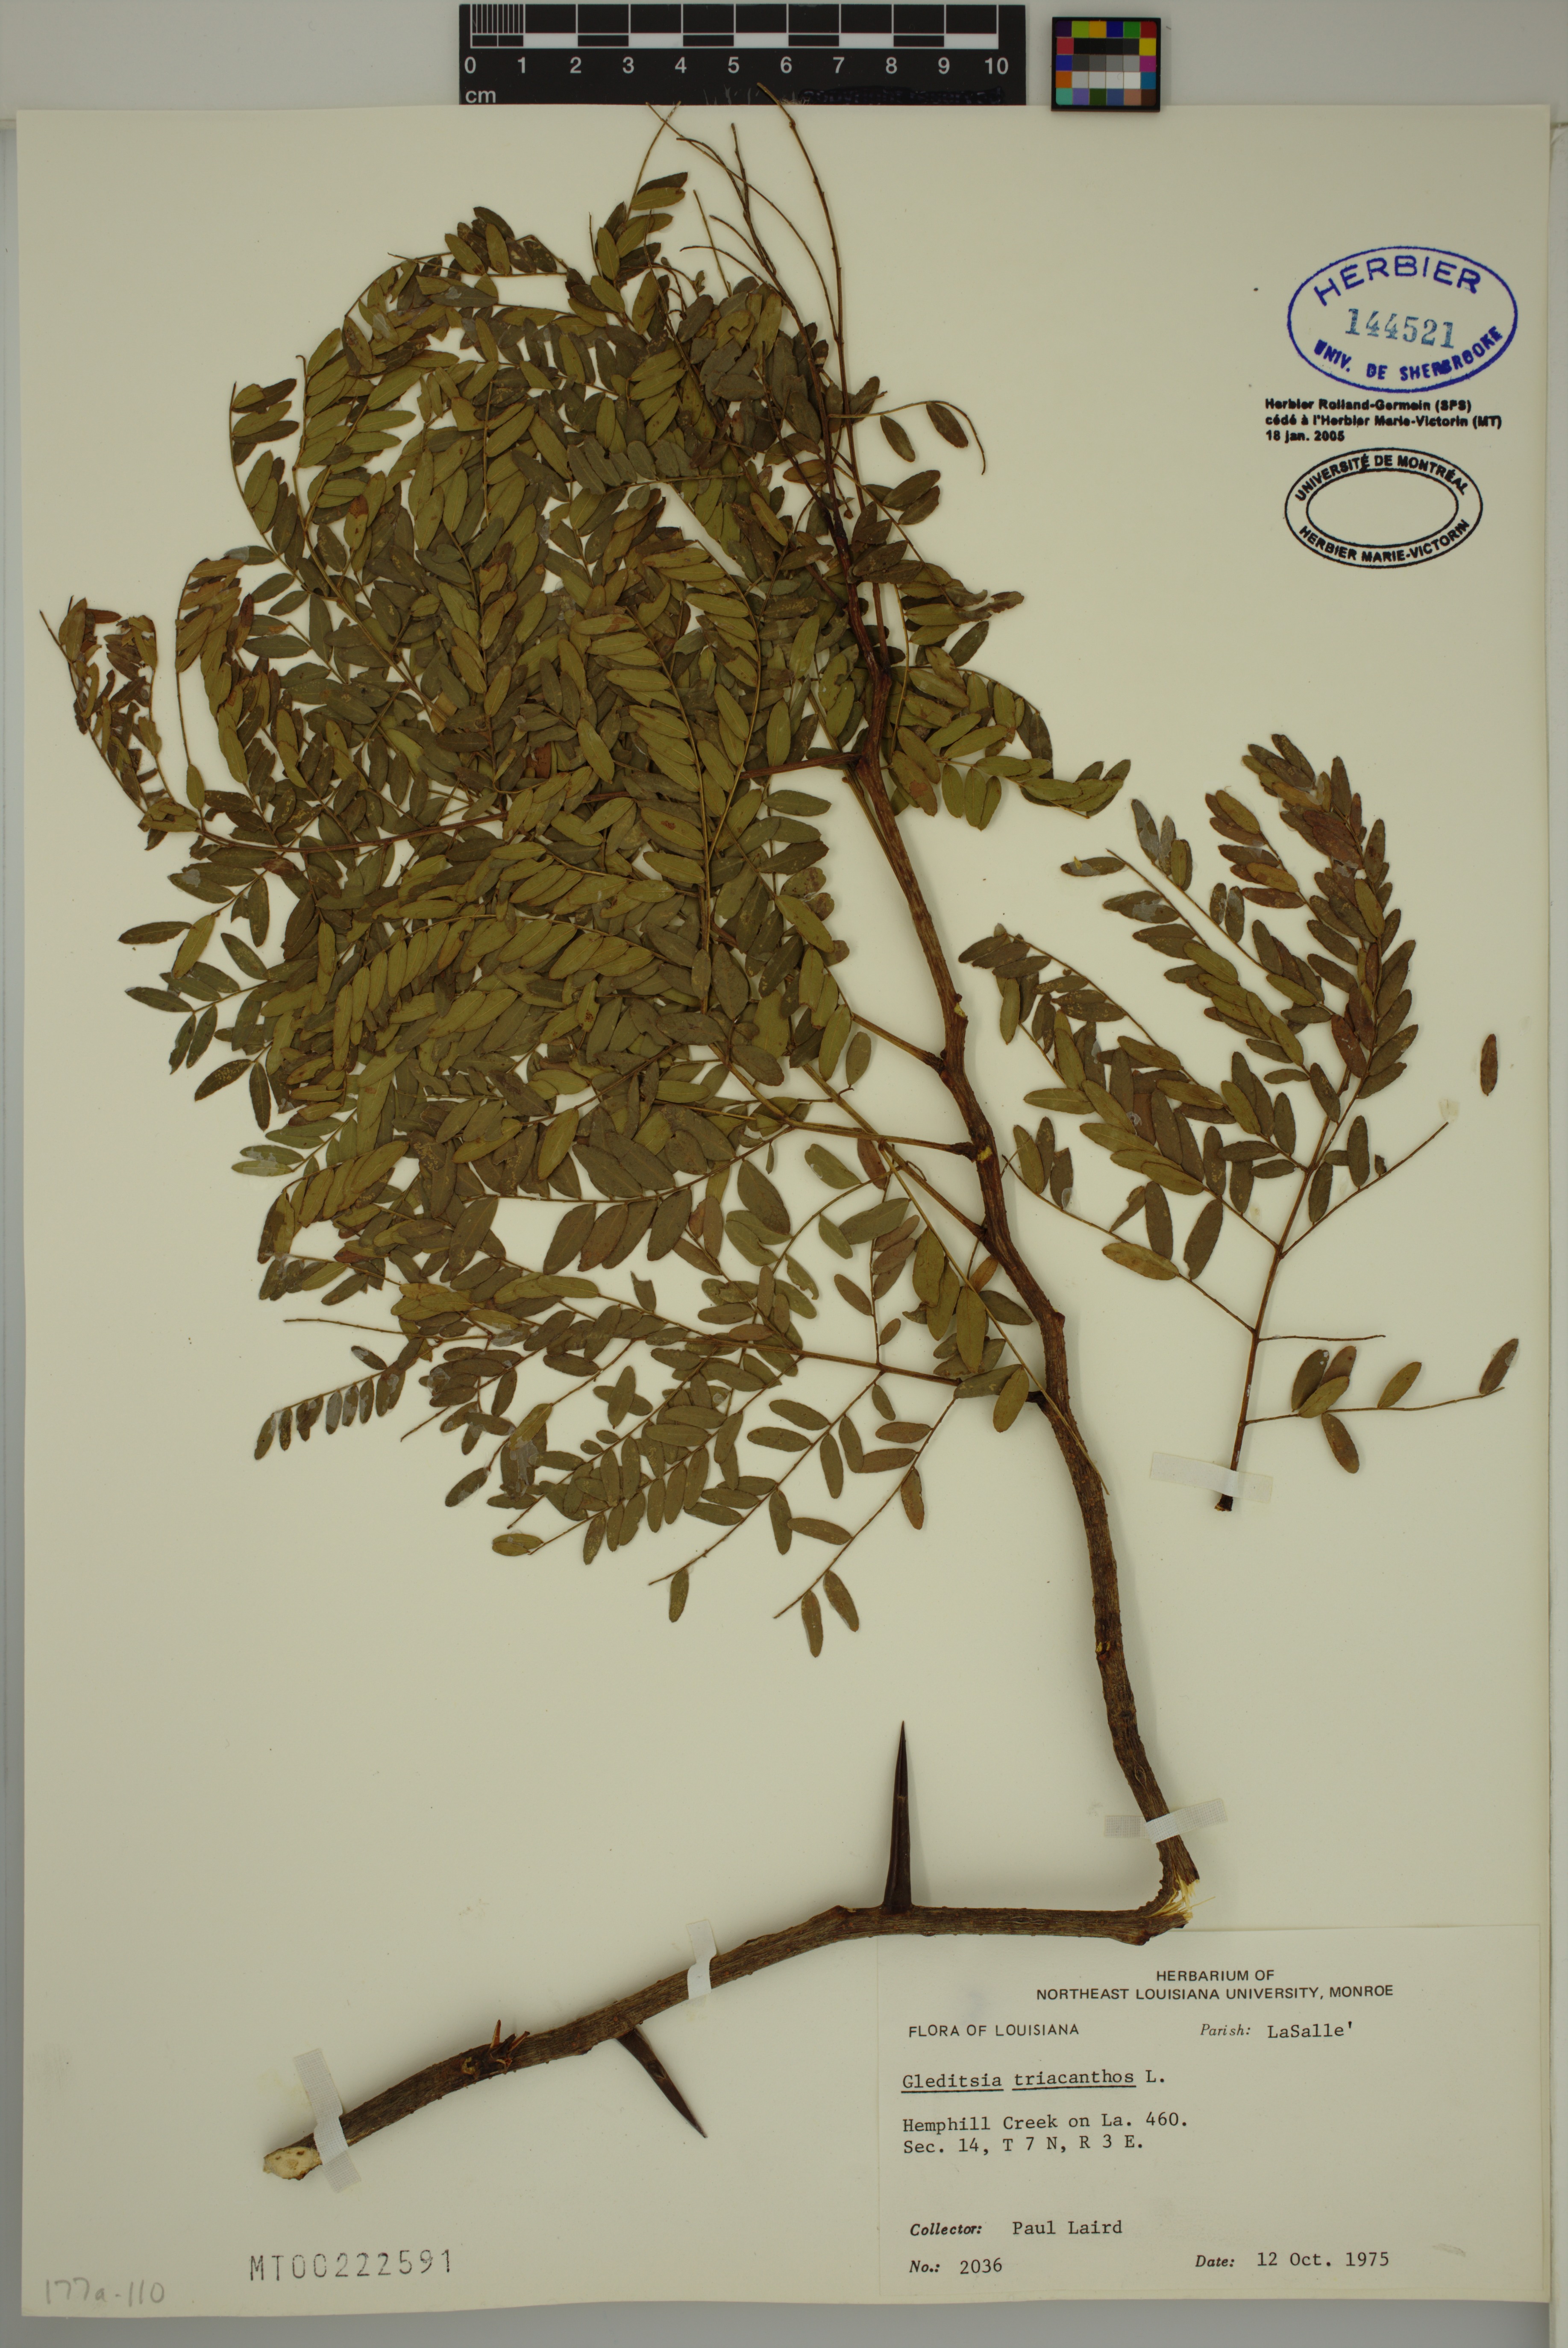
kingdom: Plantae
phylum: Tracheophyta
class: Magnoliopsida
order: Fabales
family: Fabaceae
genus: Gleditsia
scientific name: Gleditsia triacanthos
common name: Common honeylocust
